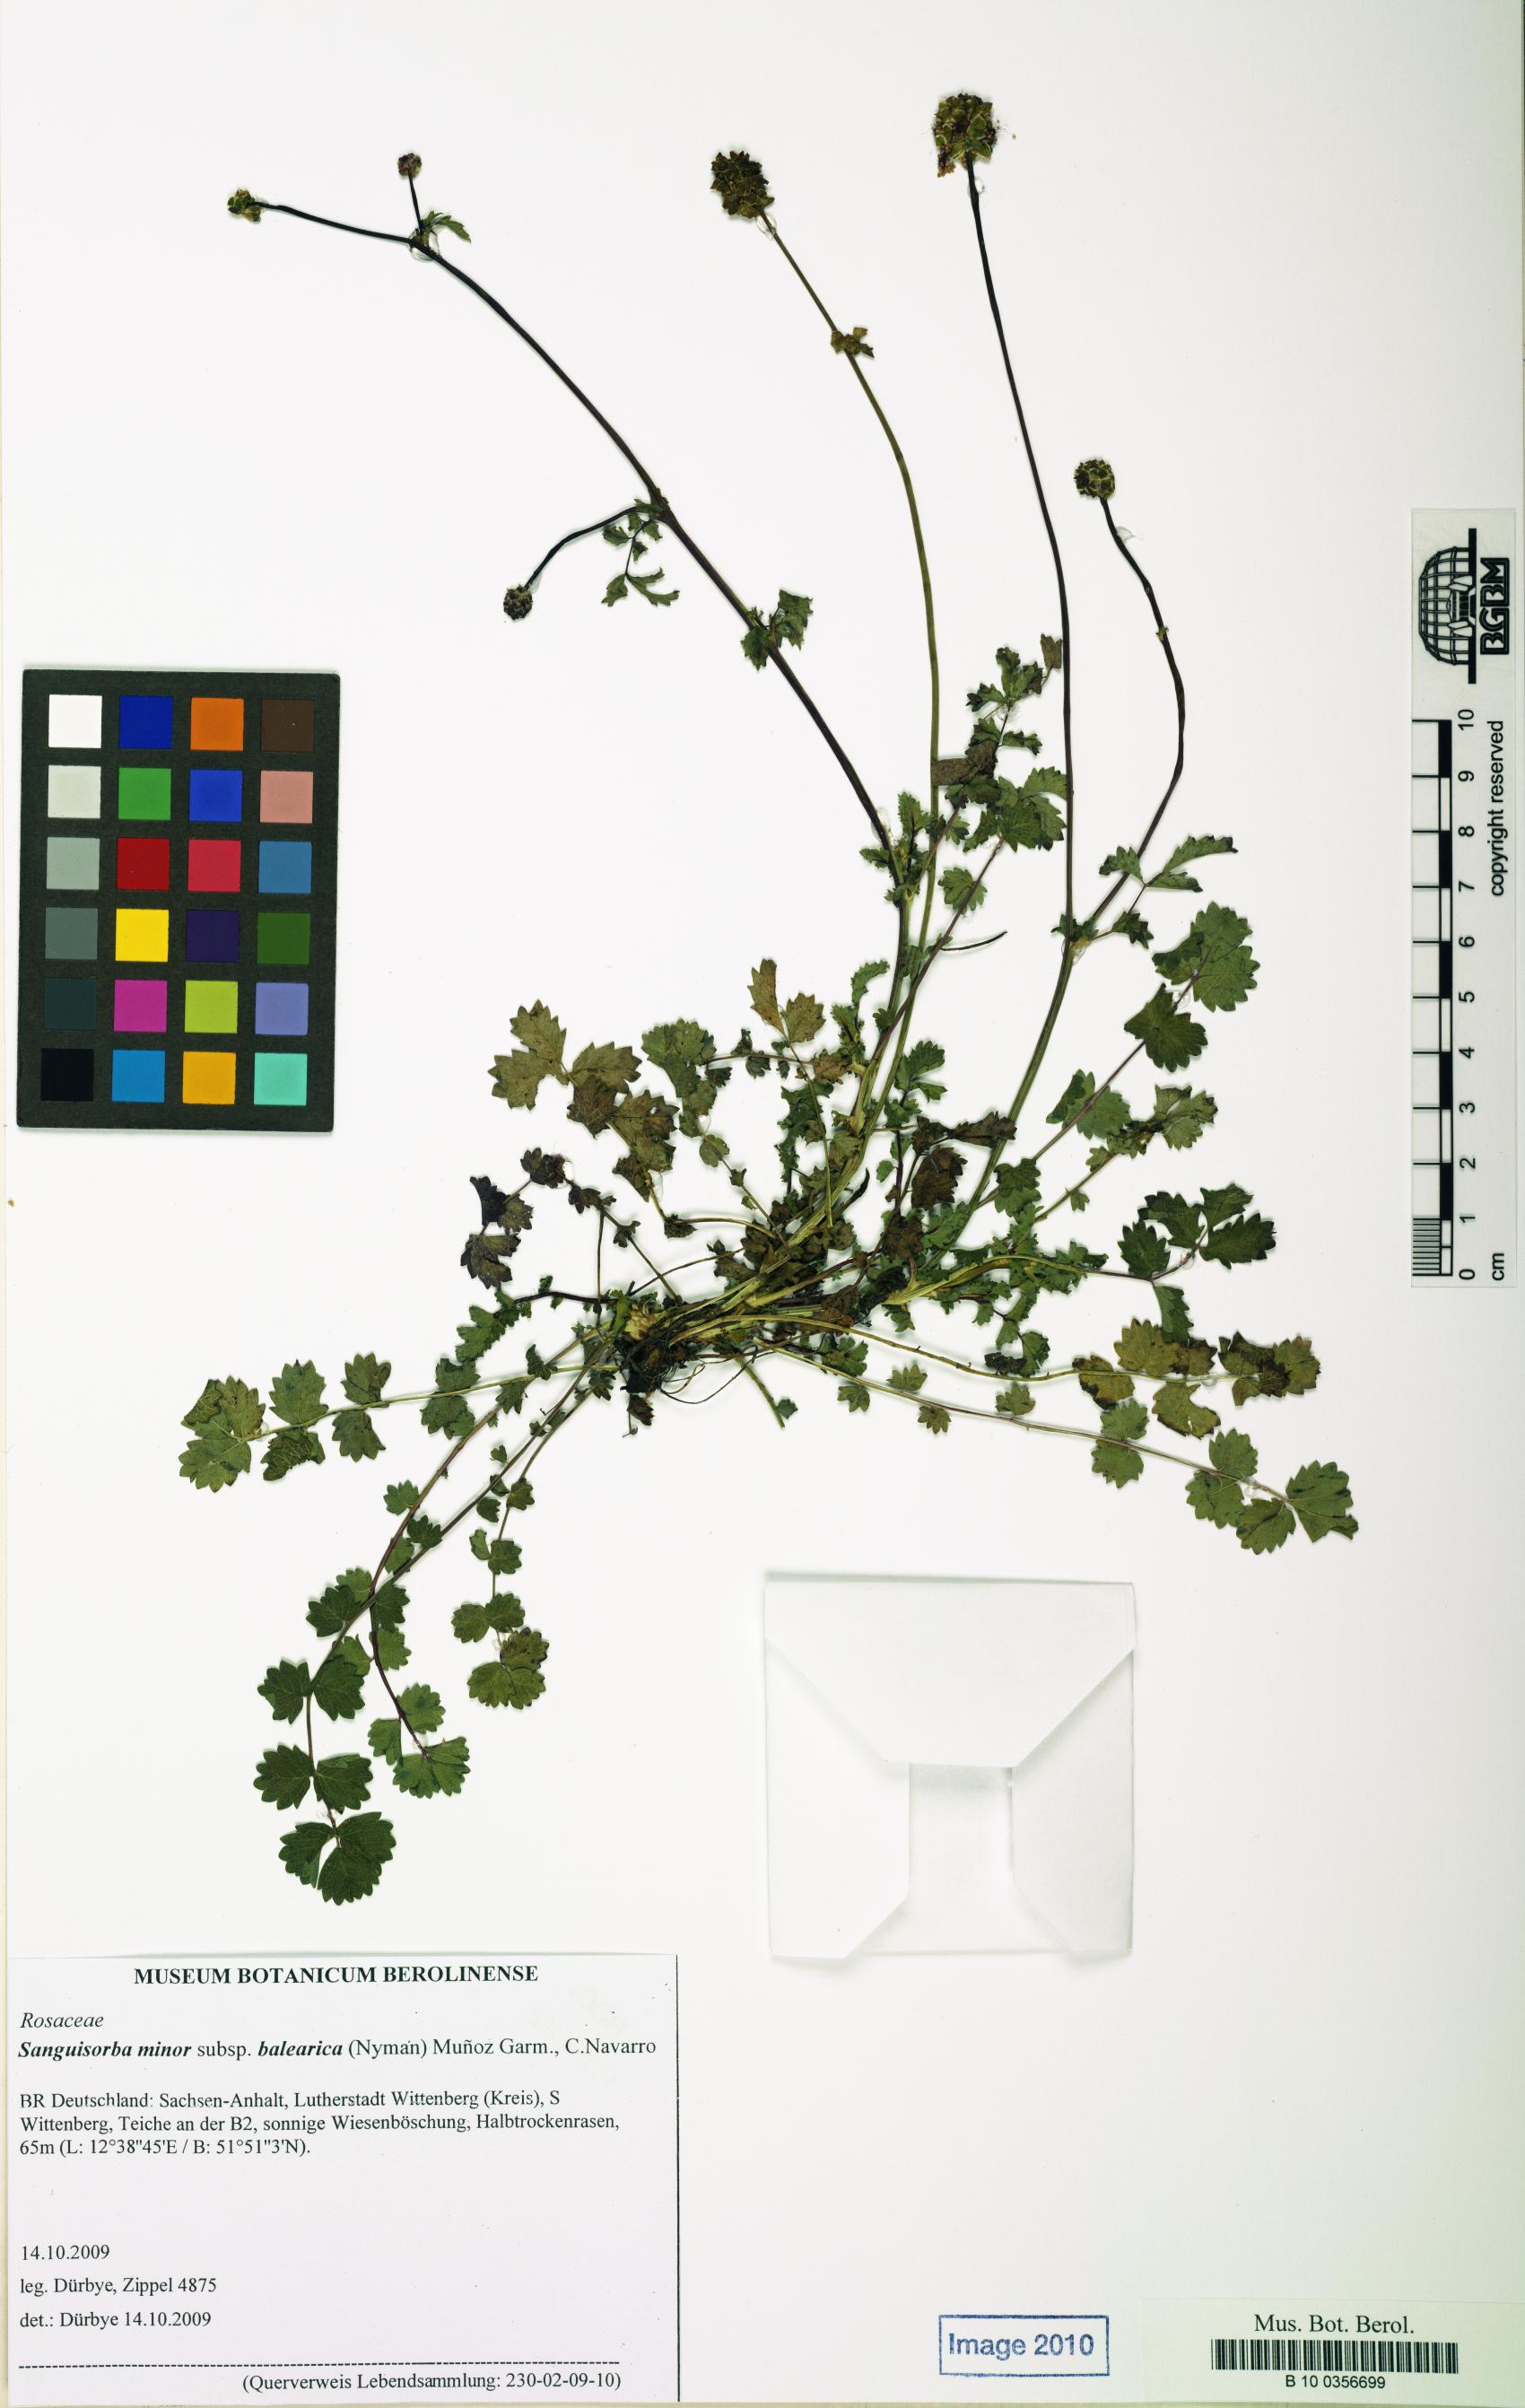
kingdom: Plantae
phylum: Tracheophyta
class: Magnoliopsida
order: Rosales
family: Rosaceae
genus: Poterium
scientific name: Poterium sanguisorba
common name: Salad burnet
